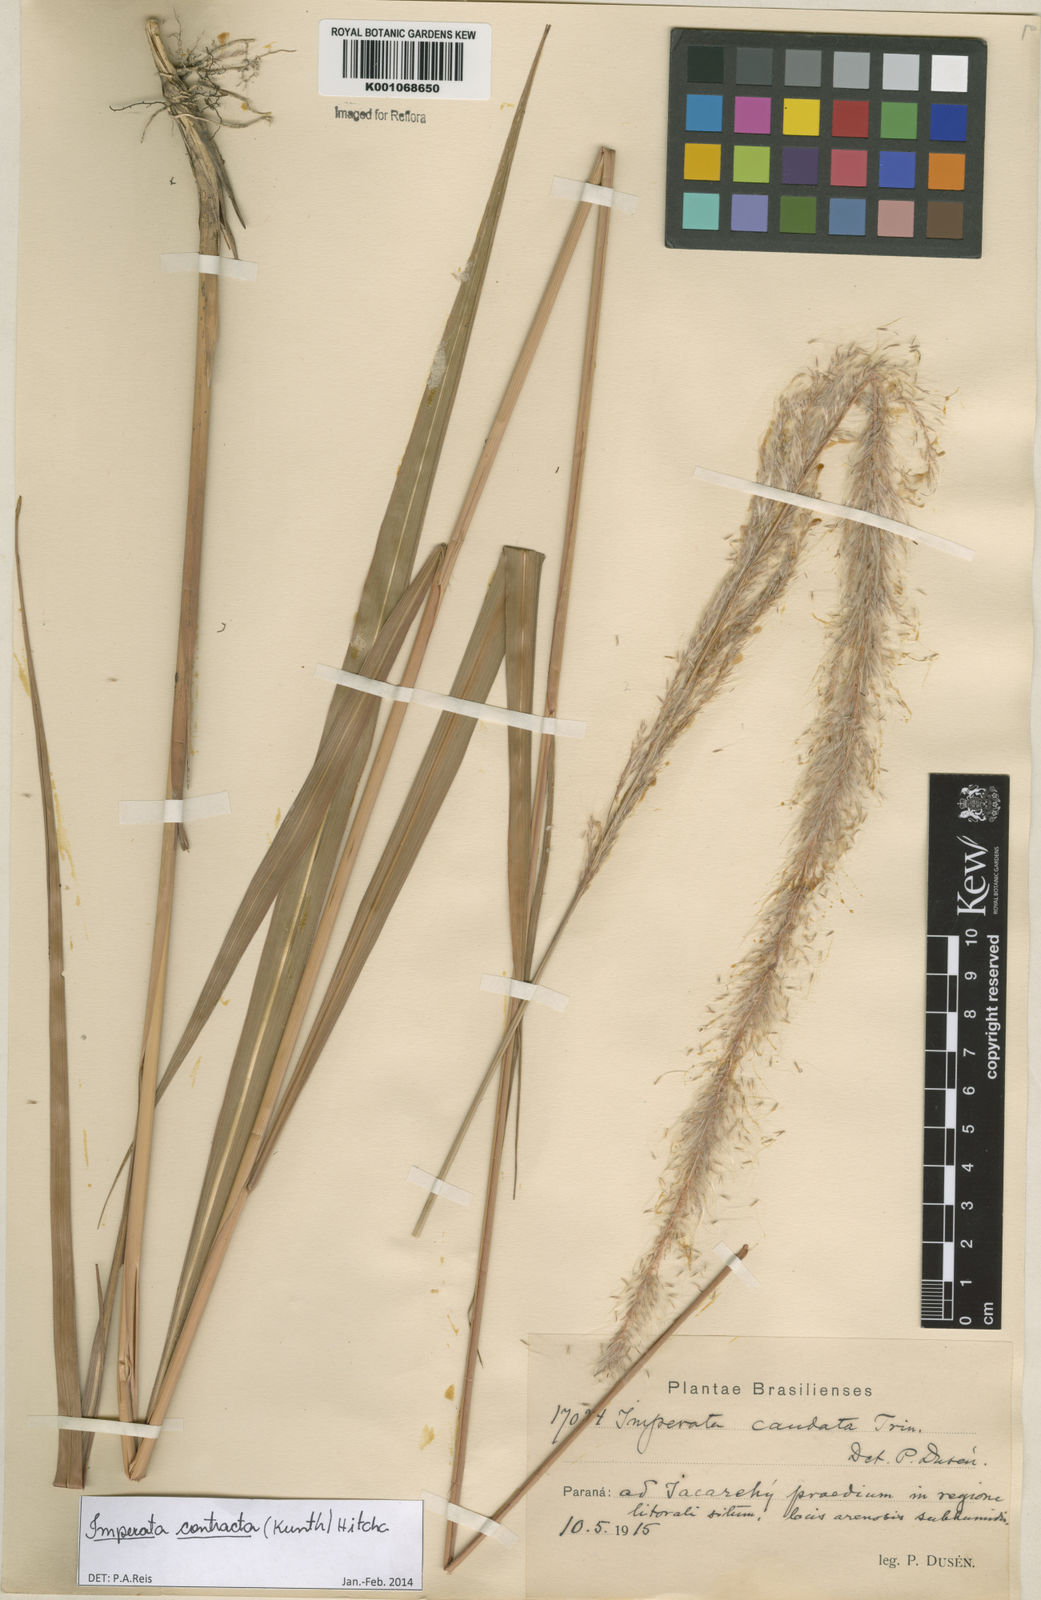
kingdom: Plantae
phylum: Tracheophyta
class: Liliopsida
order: Poales
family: Poaceae
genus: Imperata
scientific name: Imperata contracta
